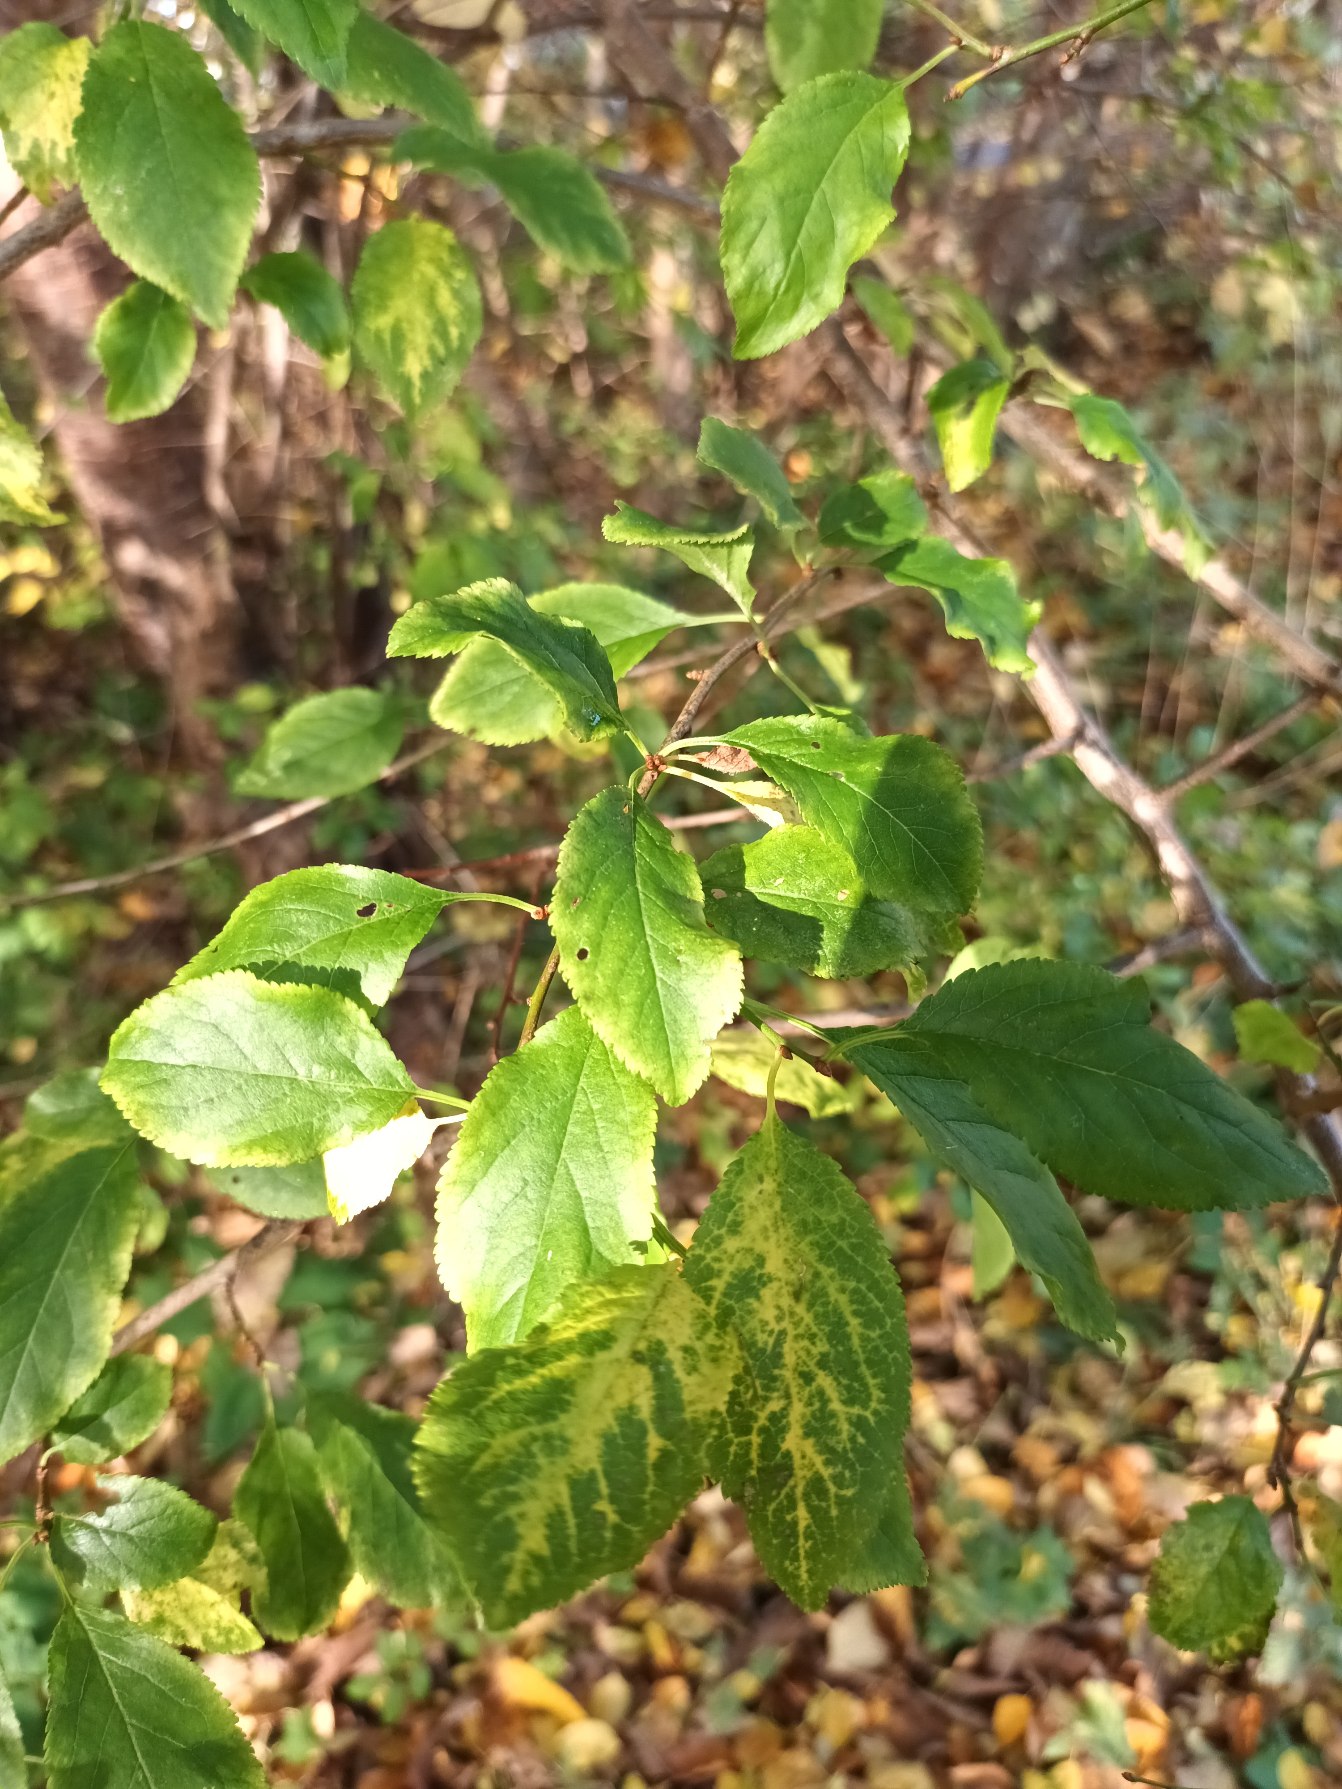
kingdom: Plantae
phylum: Tracheophyta
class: Magnoliopsida
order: Rosales
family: Rosaceae
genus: Prunus
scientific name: Prunus cerasifera
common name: Mirabel
